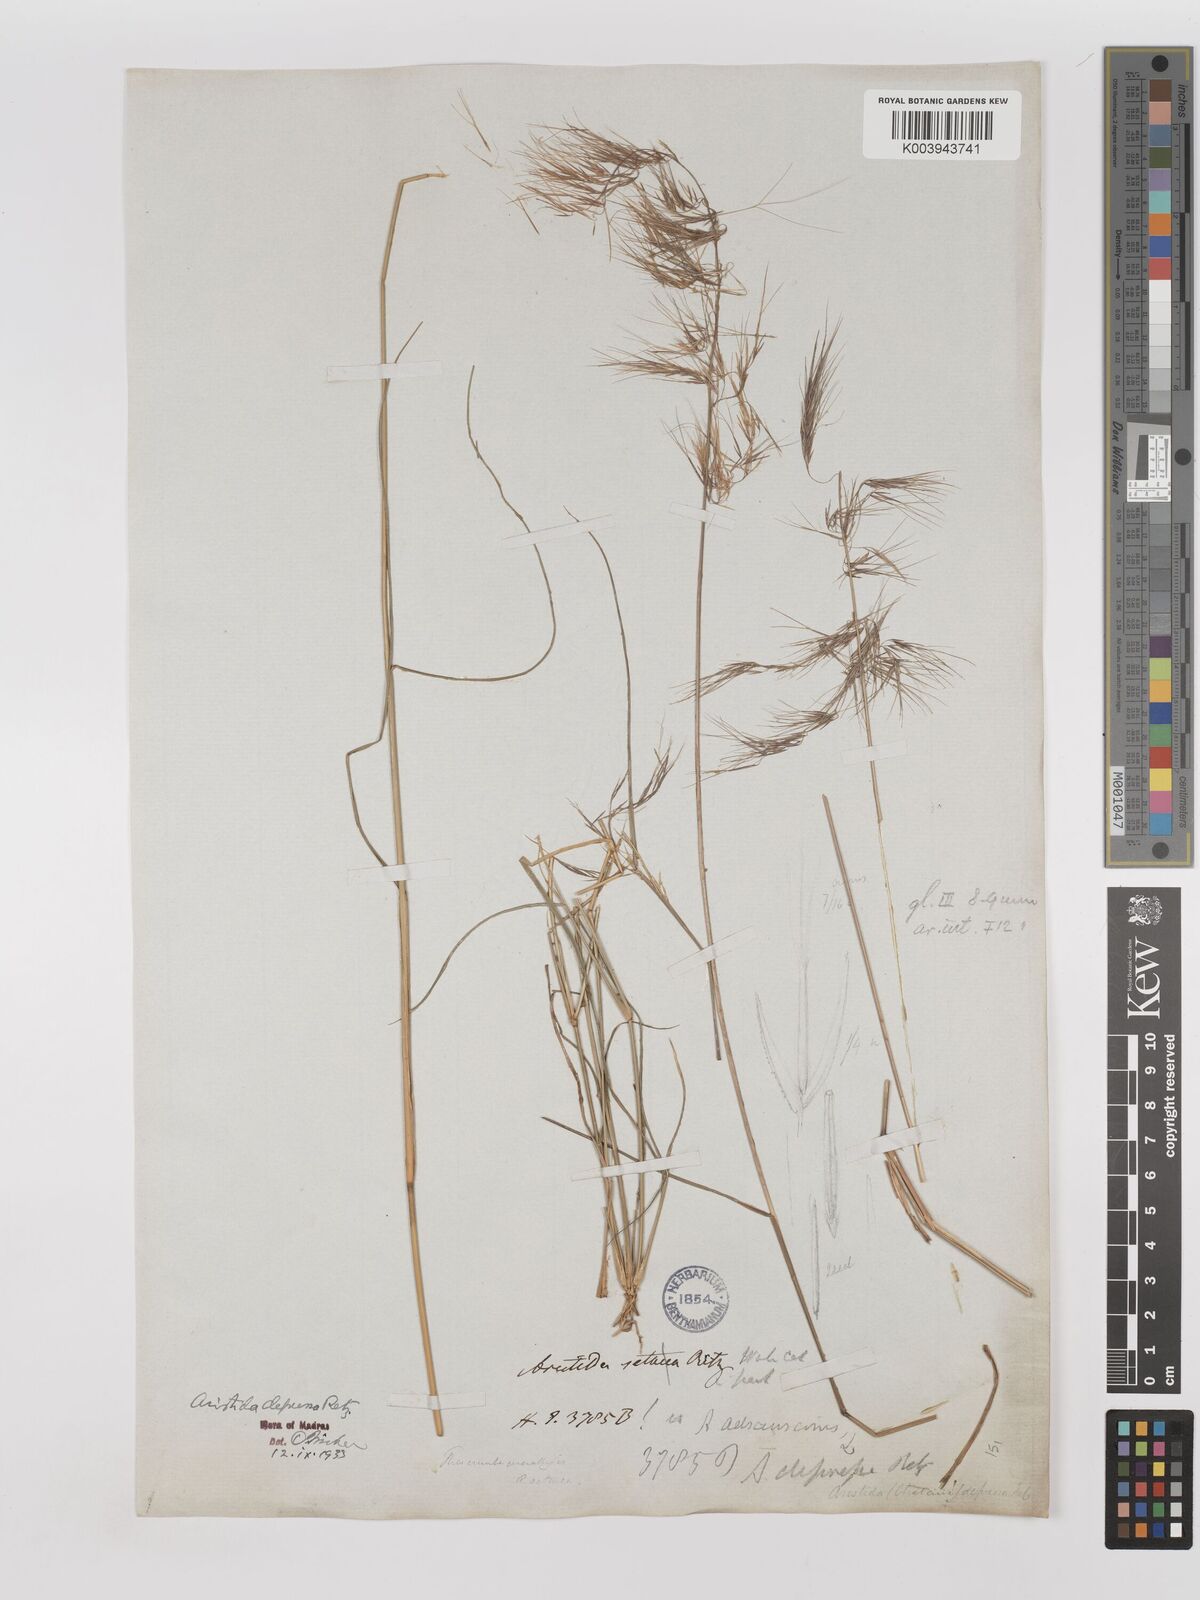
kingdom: Plantae
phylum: Tracheophyta
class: Liliopsida
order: Poales
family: Poaceae
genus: Aristida
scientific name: Aristida adscensionis
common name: Sixweeks threeawn
